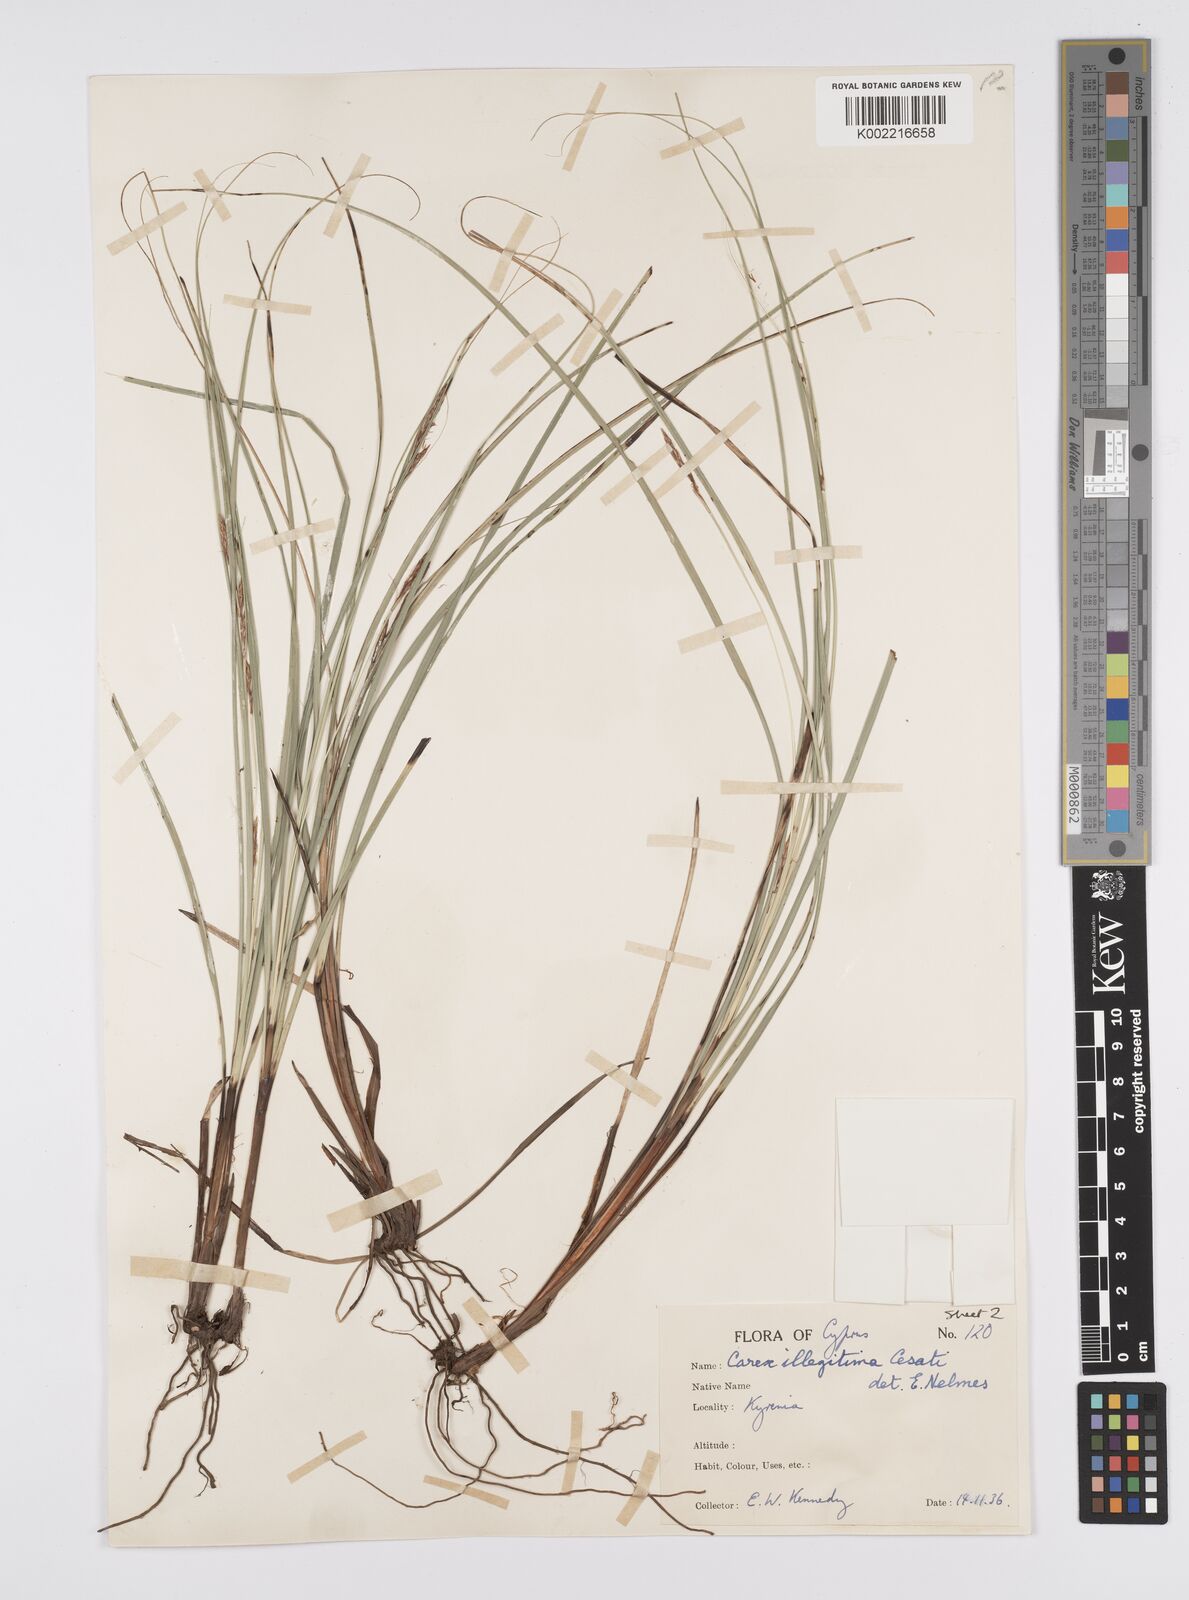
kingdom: Plantae
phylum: Tracheophyta
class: Liliopsida
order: Poales
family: Cyperaceae
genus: Carex
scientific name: Carex illegitima
